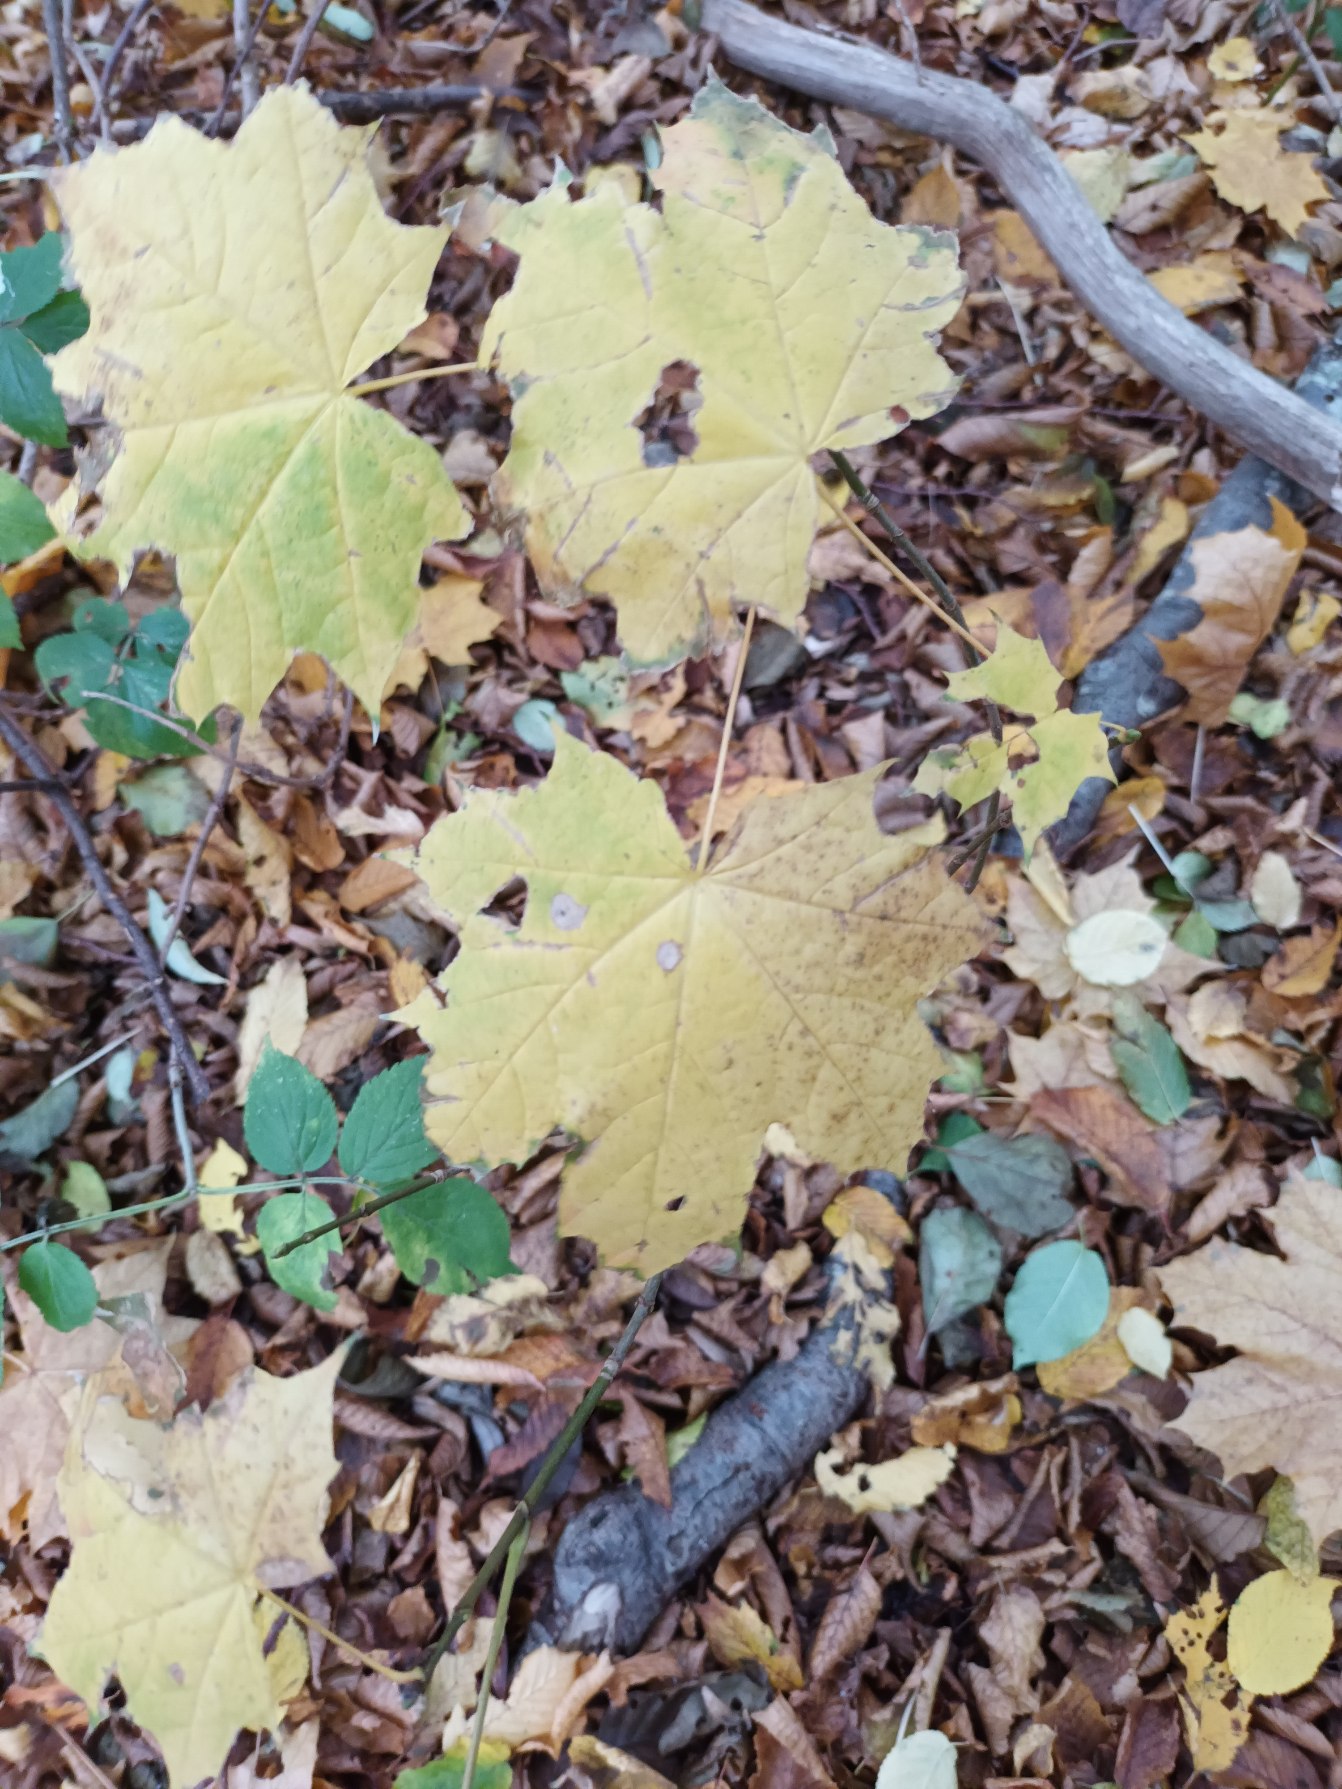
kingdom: Plantae
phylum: Tracheophyta
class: Magnoliopsida
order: Sapindales
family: Sapindaceae
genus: Acer
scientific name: Acer platanoides
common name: Spids-løn
